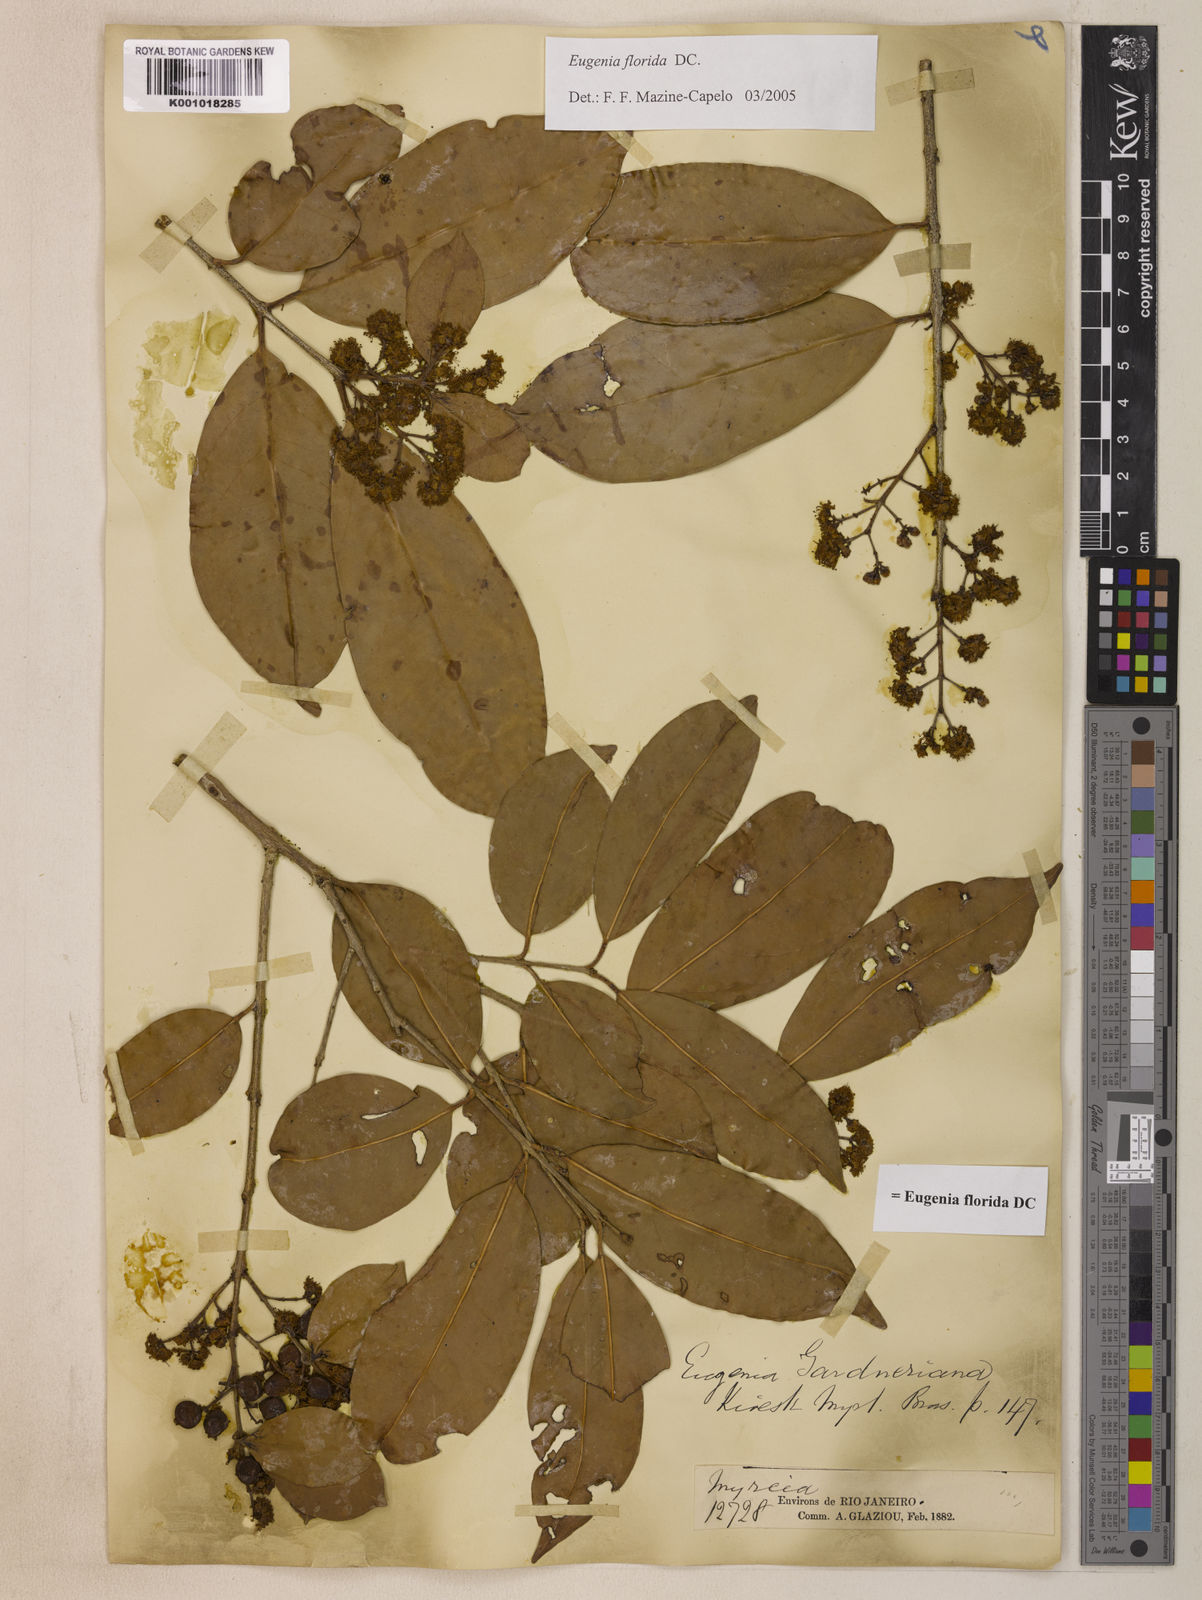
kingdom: Plantae
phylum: Tracheophyta
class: Magnoliopsida
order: Myrtales
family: Myrtaceae
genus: Eugenia
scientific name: Eugenia florida
